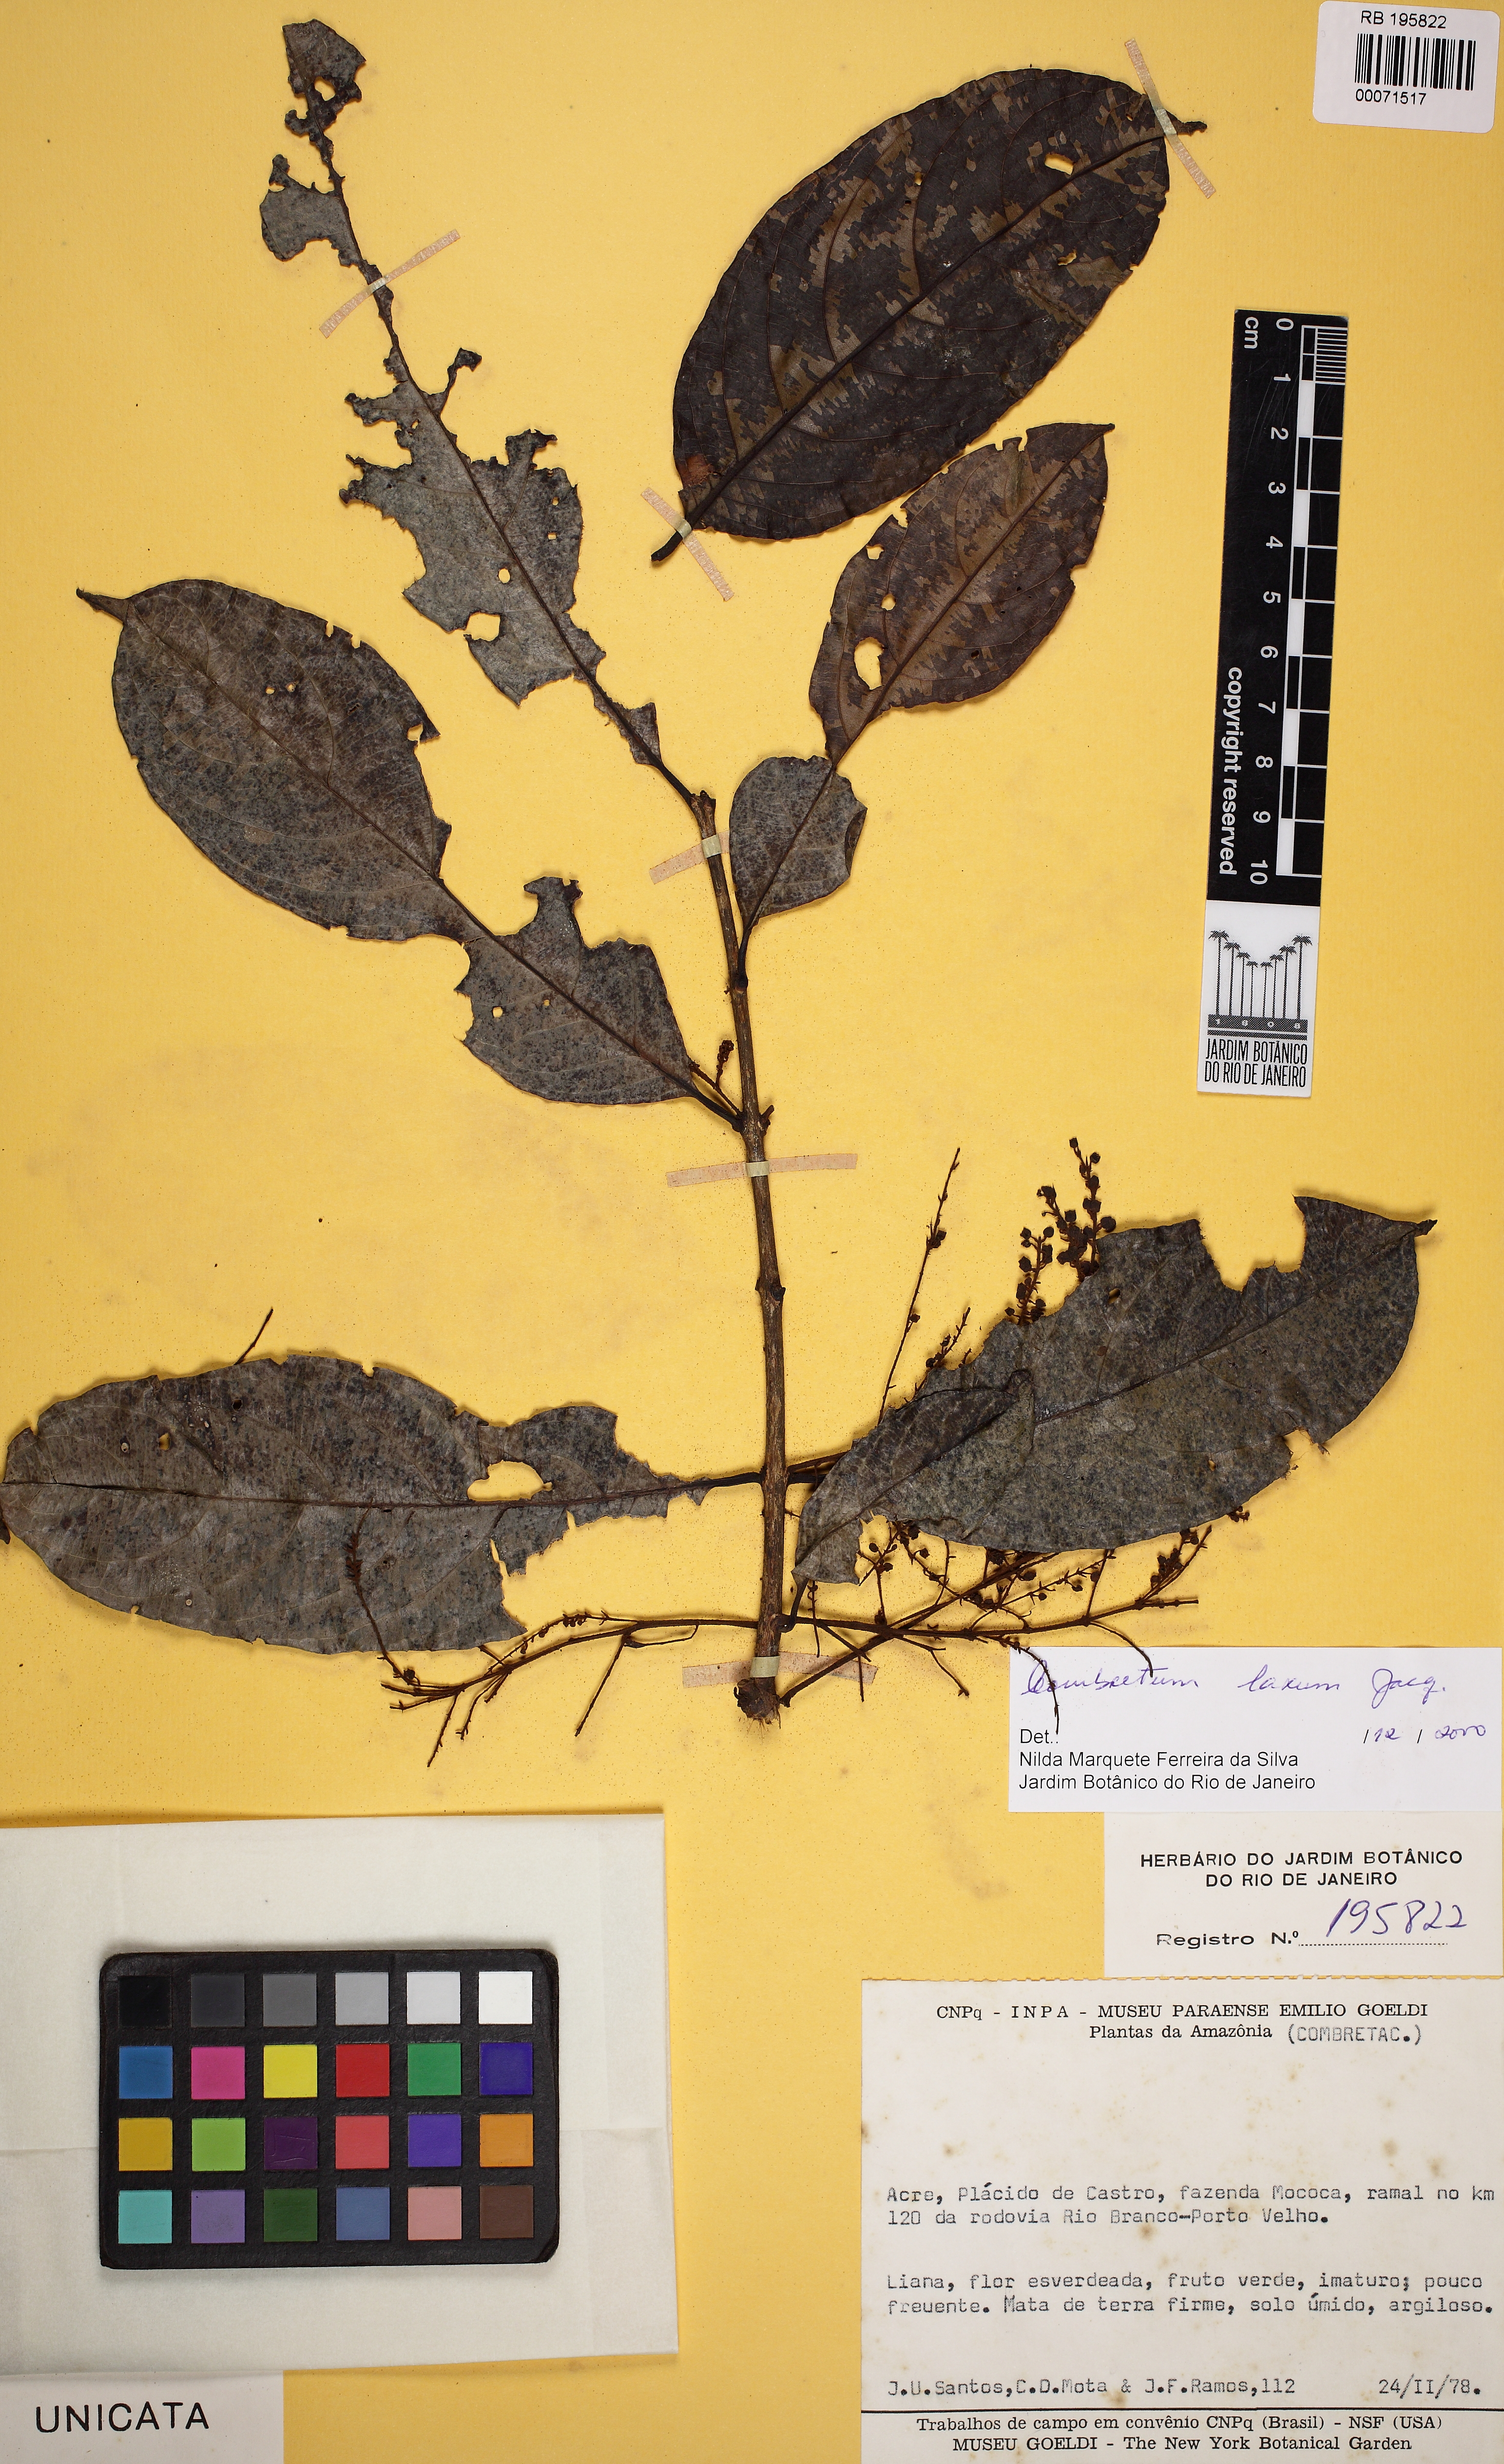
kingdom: Plantae
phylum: Tracheophyta
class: Magnoliopsida
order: Myrtales
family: Combretaceae
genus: Combretum
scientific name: Combretum laxum
